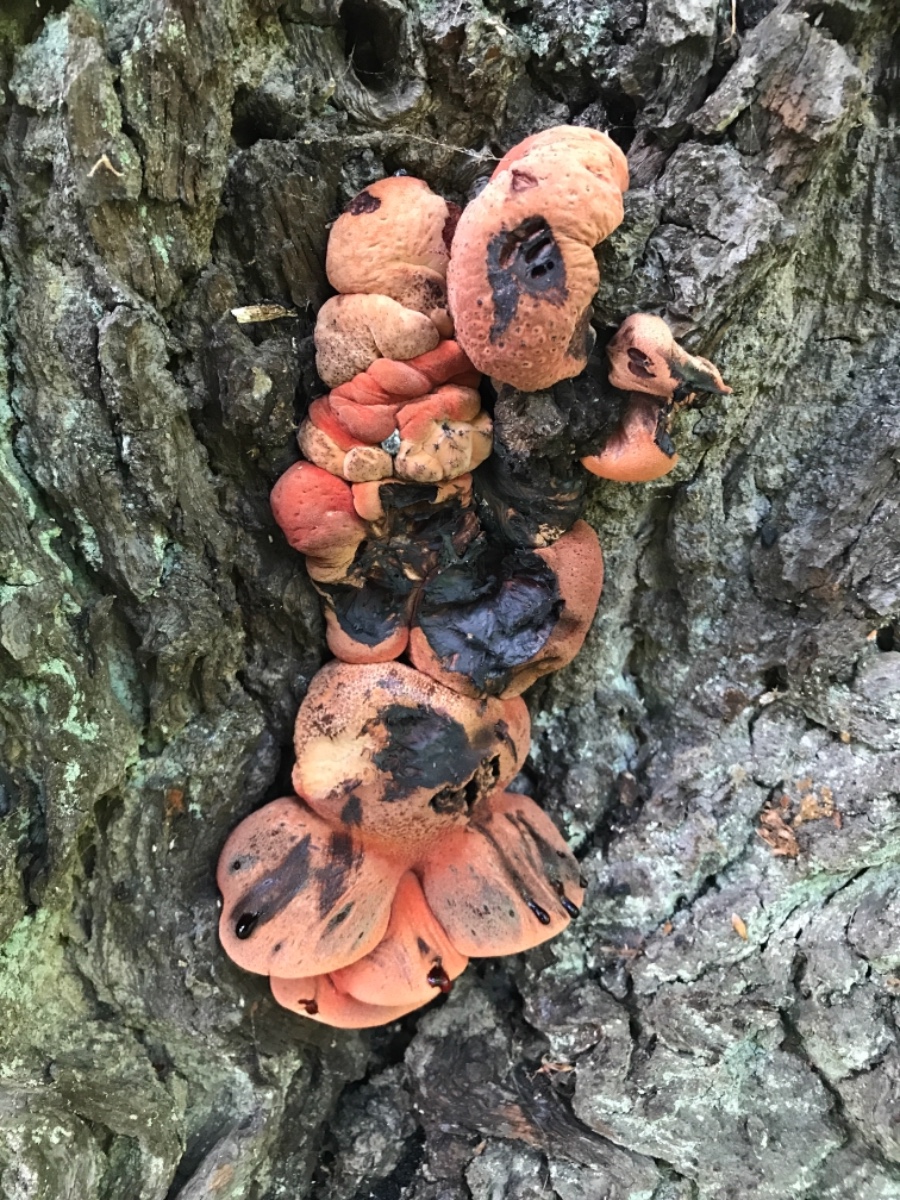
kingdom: Fungi
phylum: Basidiomycota
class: Agaricomycetes
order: Agaricales
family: Fistulinaceae
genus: Fistulina
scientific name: Fistulina hepatica
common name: oksetunge
